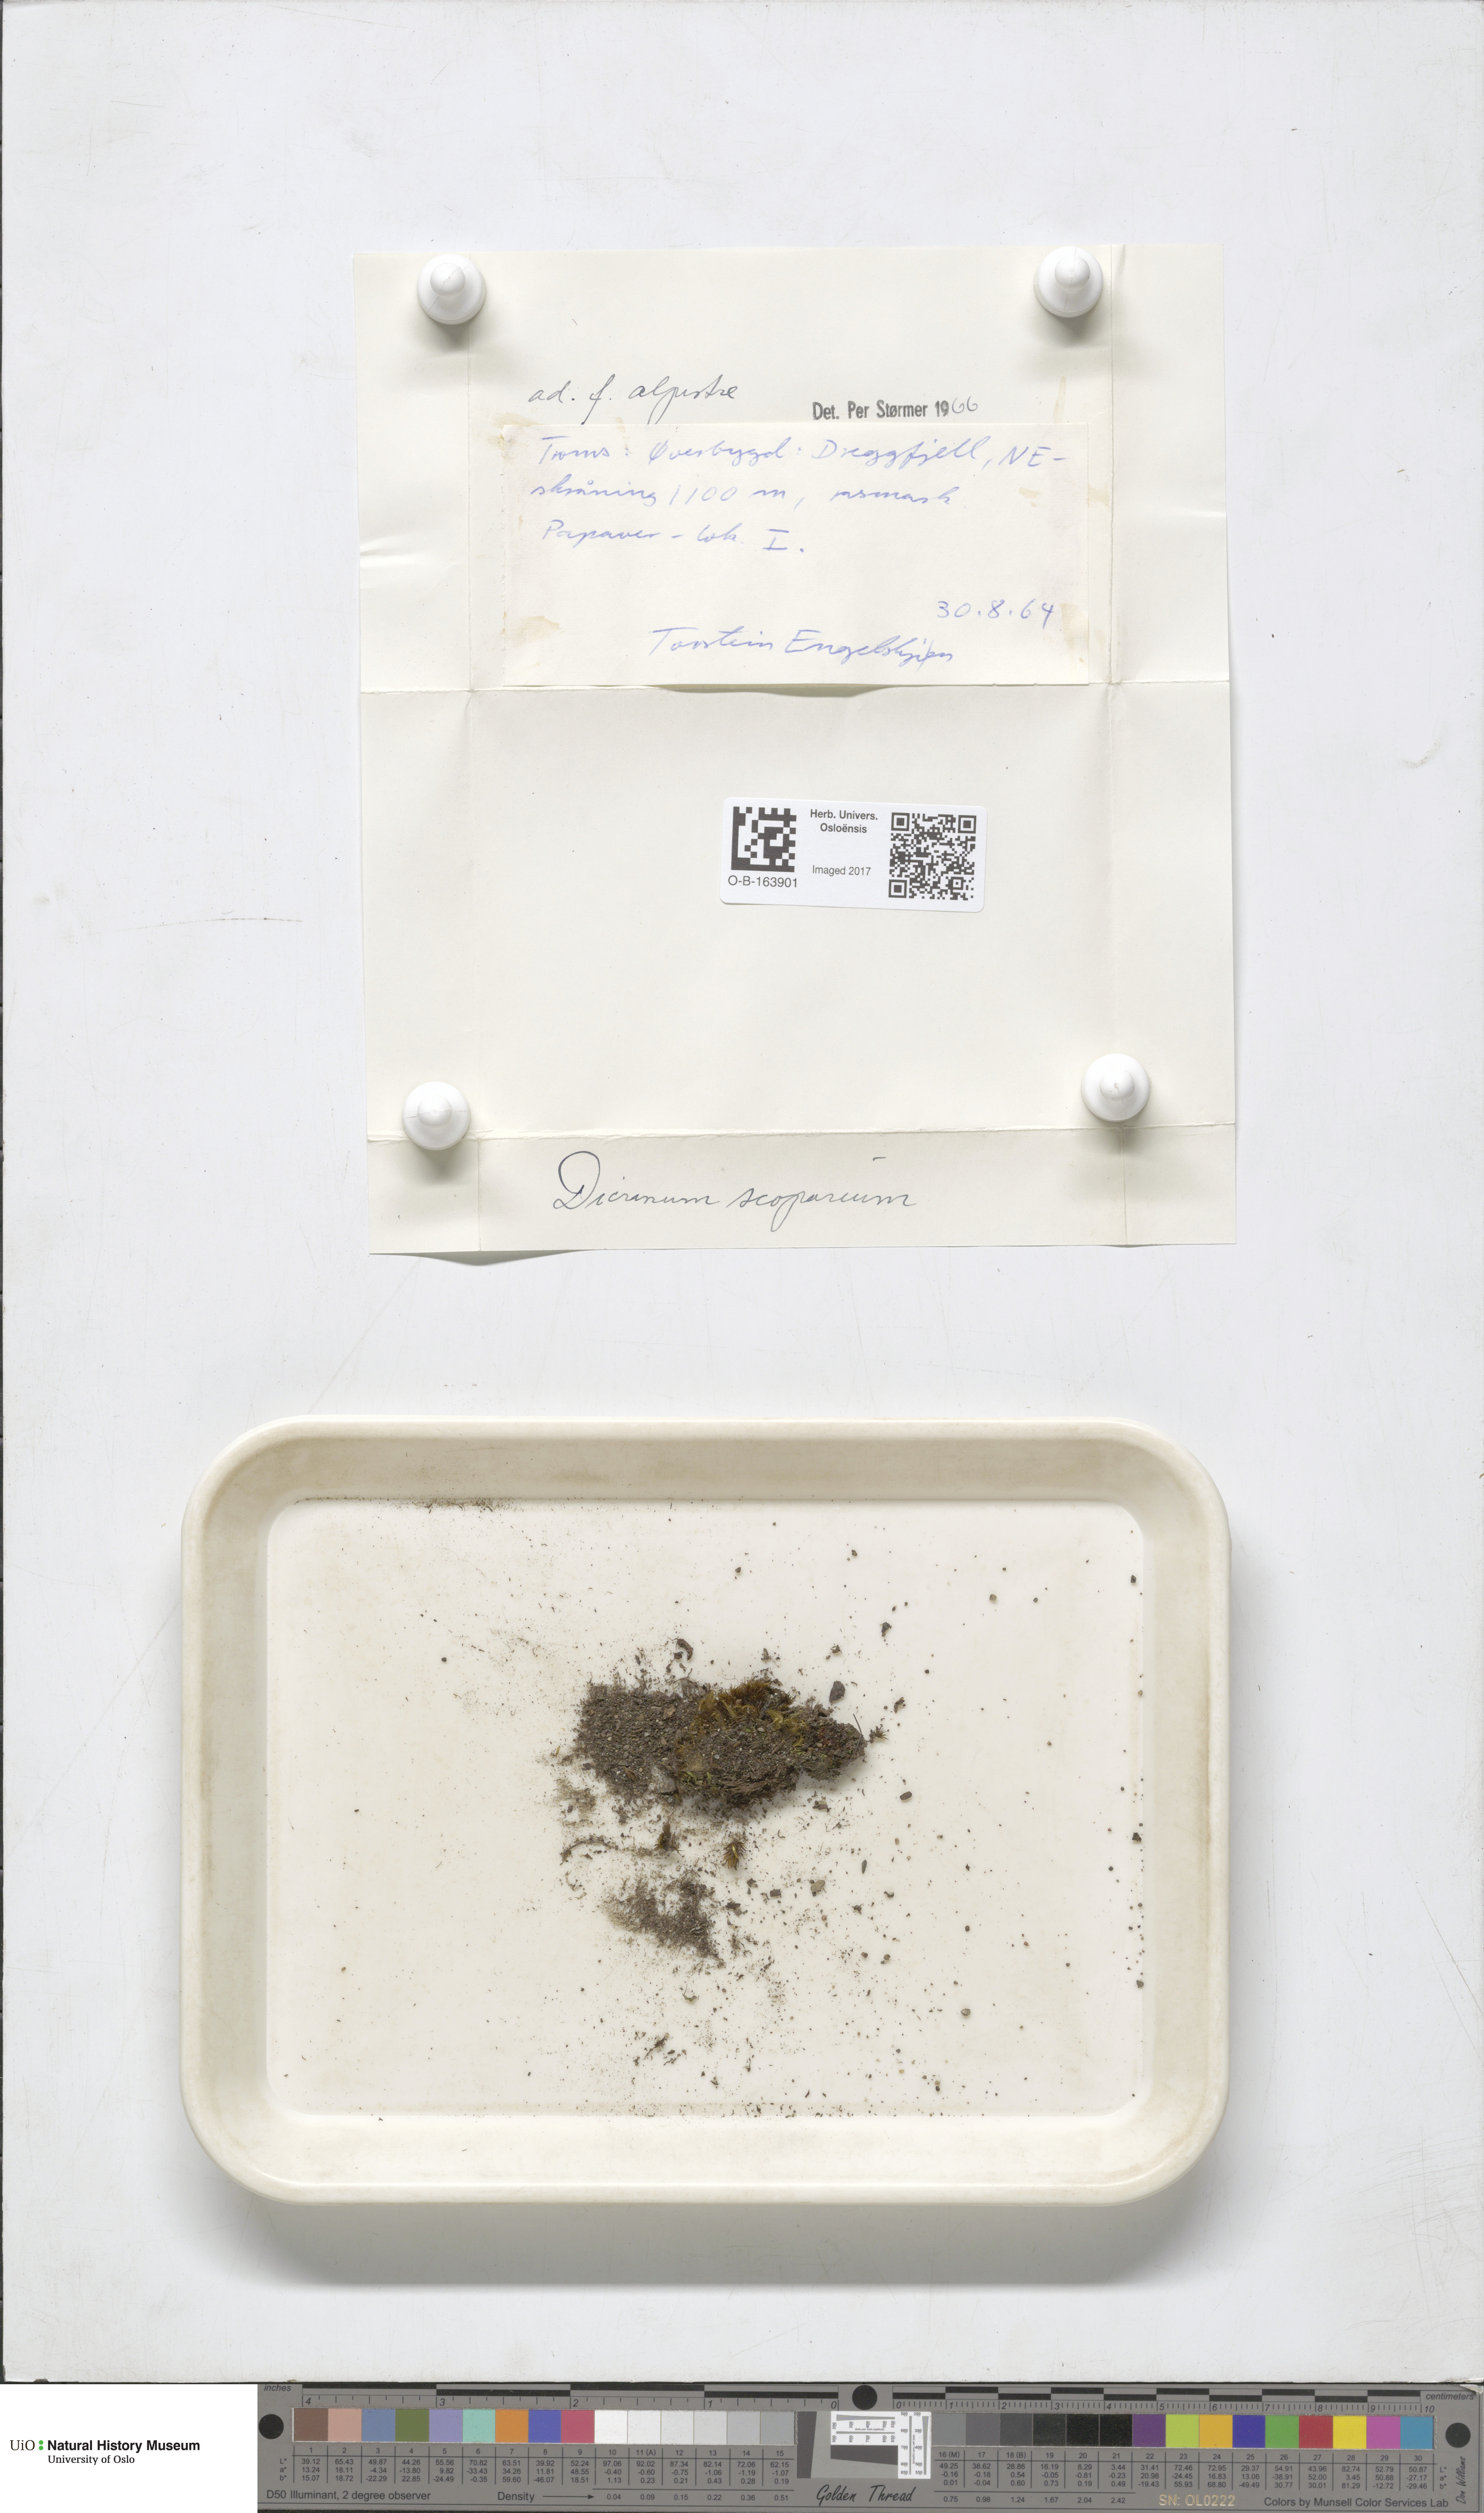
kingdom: Plantae
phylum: Bryophyta
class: Bryopsida
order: Dicranales
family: Dicranaceae
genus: Dicranum
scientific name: Dicranum scoparium
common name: Broom fork-moss
